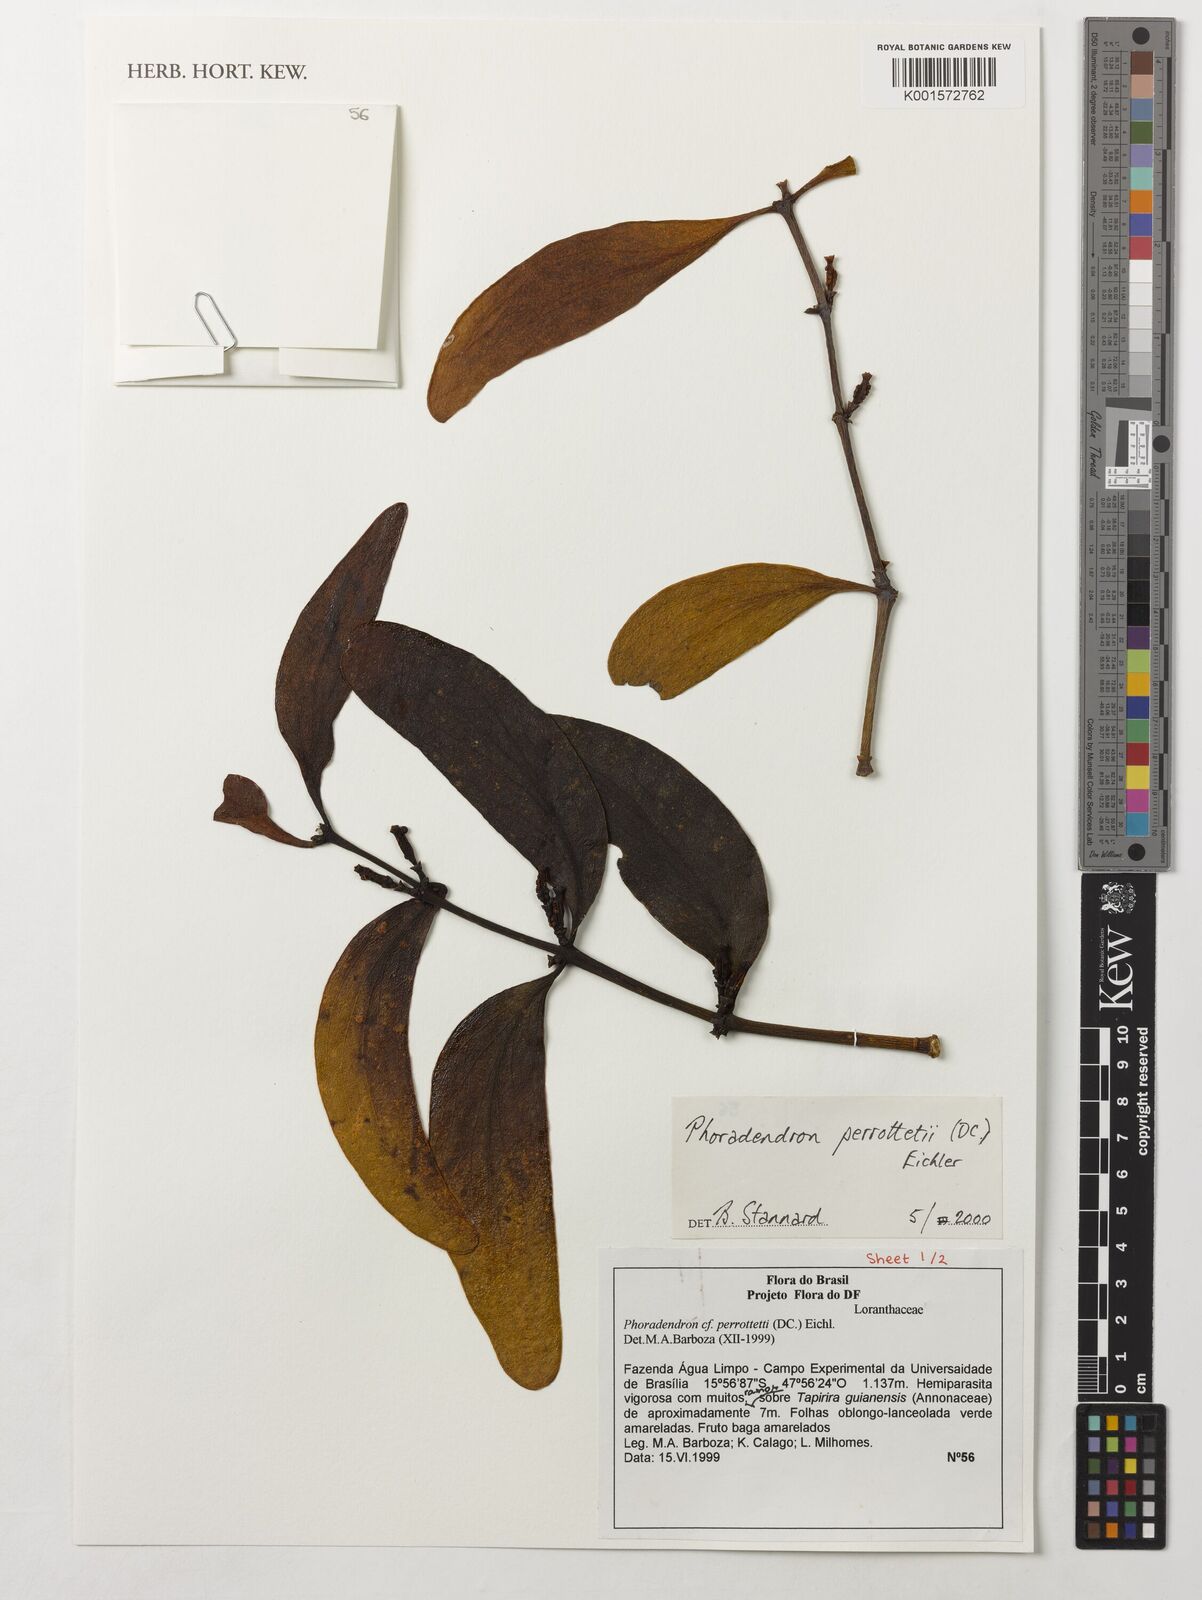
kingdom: Plantae
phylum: Tracheophyta
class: Magnoliopsida
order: Santalales
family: Viscaceae
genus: Phoradendron
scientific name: Phoradendron perrottetii
